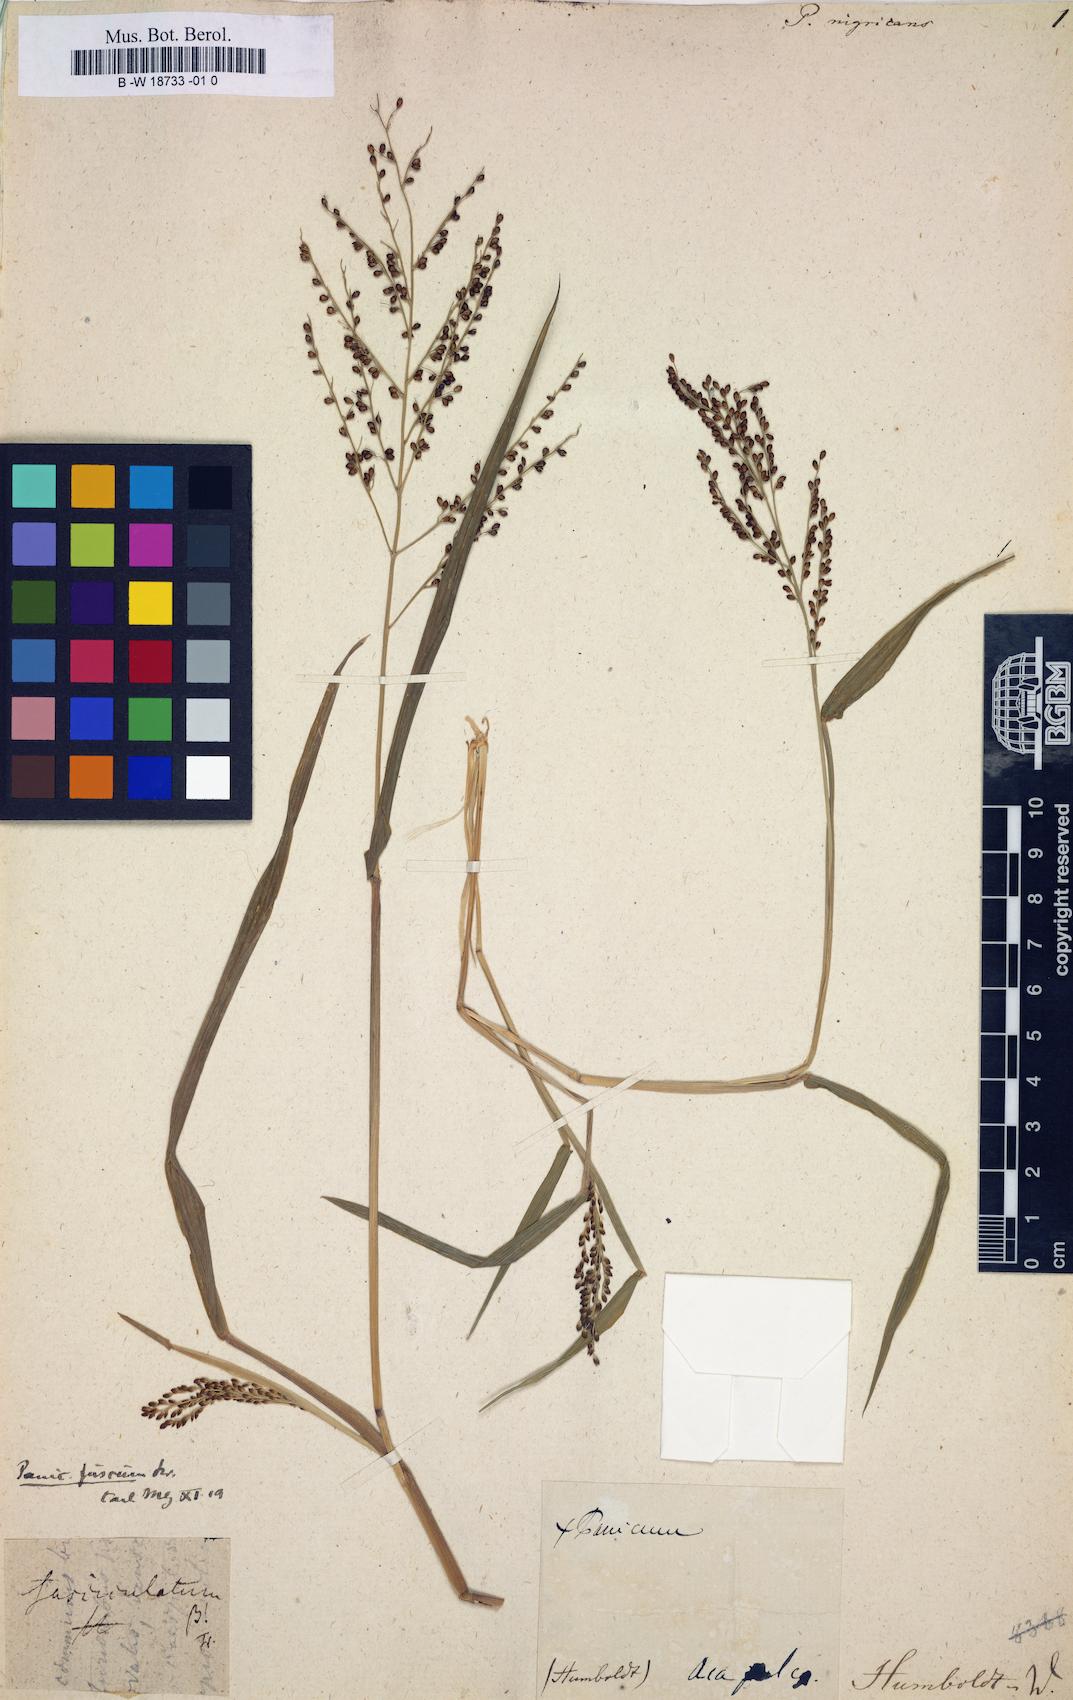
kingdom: Plantae
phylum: Tracheophyta
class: Liliopsida
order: Poales
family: Poaceae
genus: Urochloa
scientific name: Urochloa fusca
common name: Browntop signal grass
